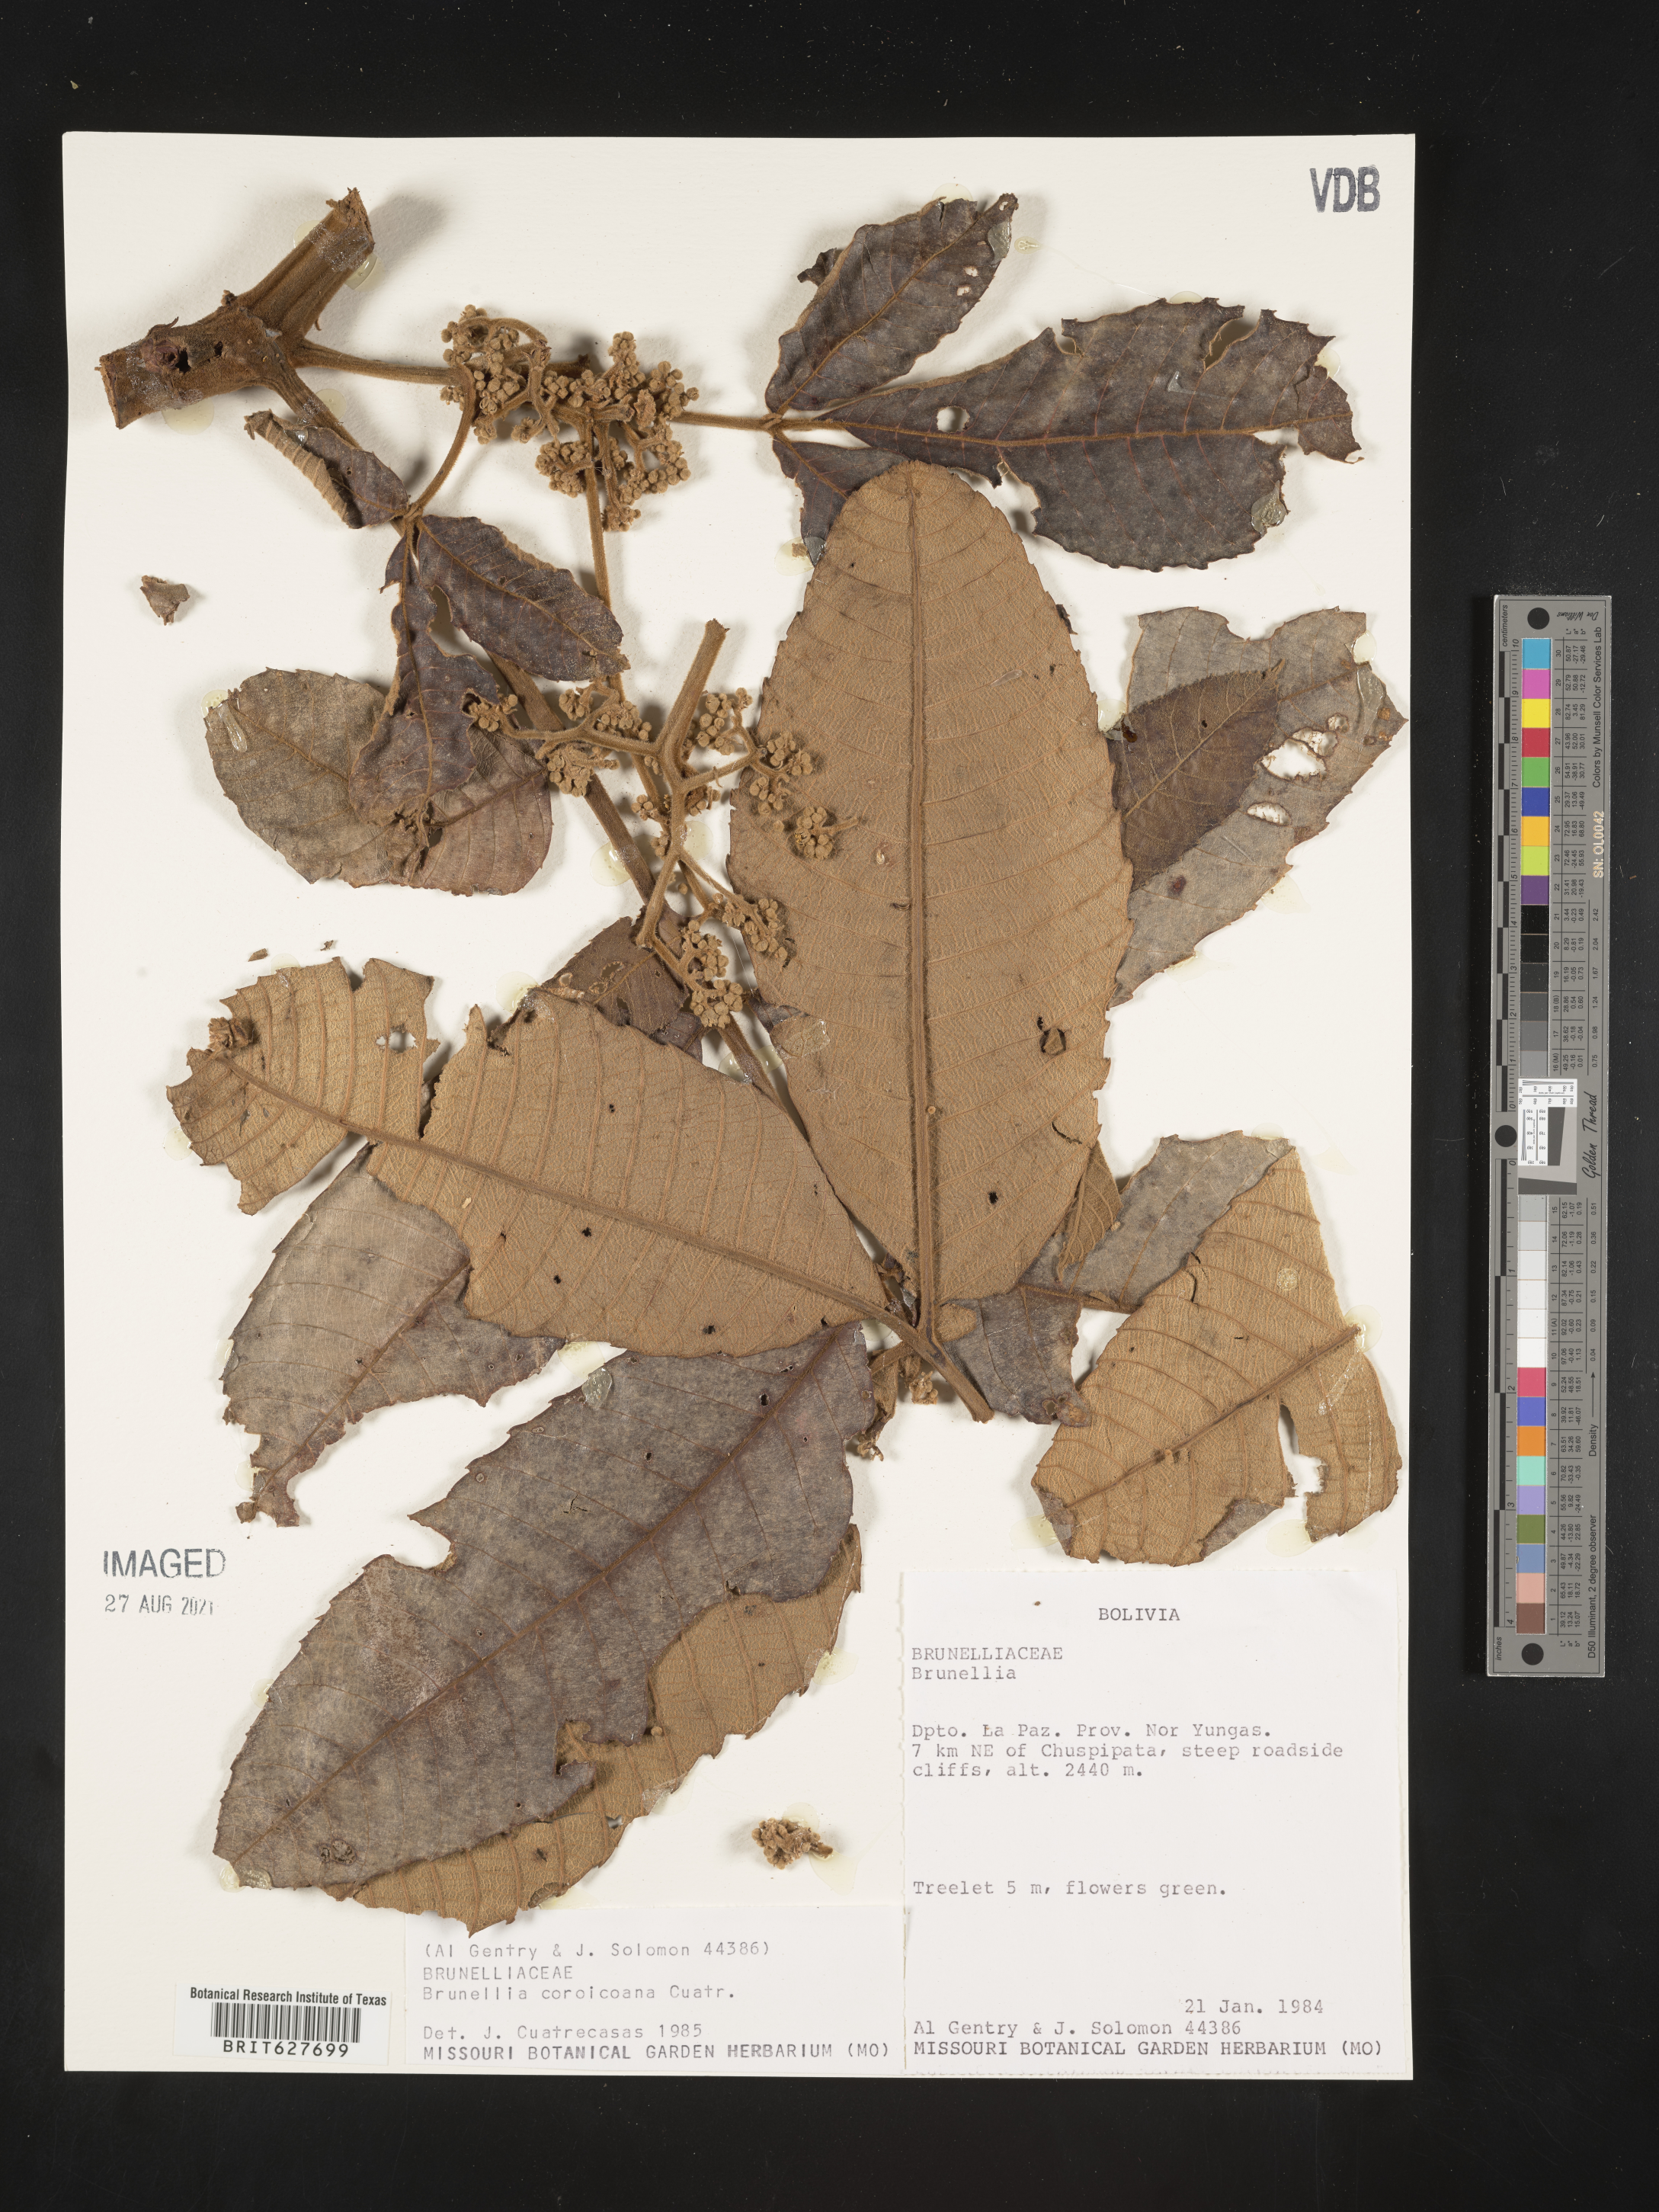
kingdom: Plantae
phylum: Tracheophyta
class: Magnoliopsida
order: Oxalidales
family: Brunelliaceae
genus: Brunellia
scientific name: Brunellia sibundoya
